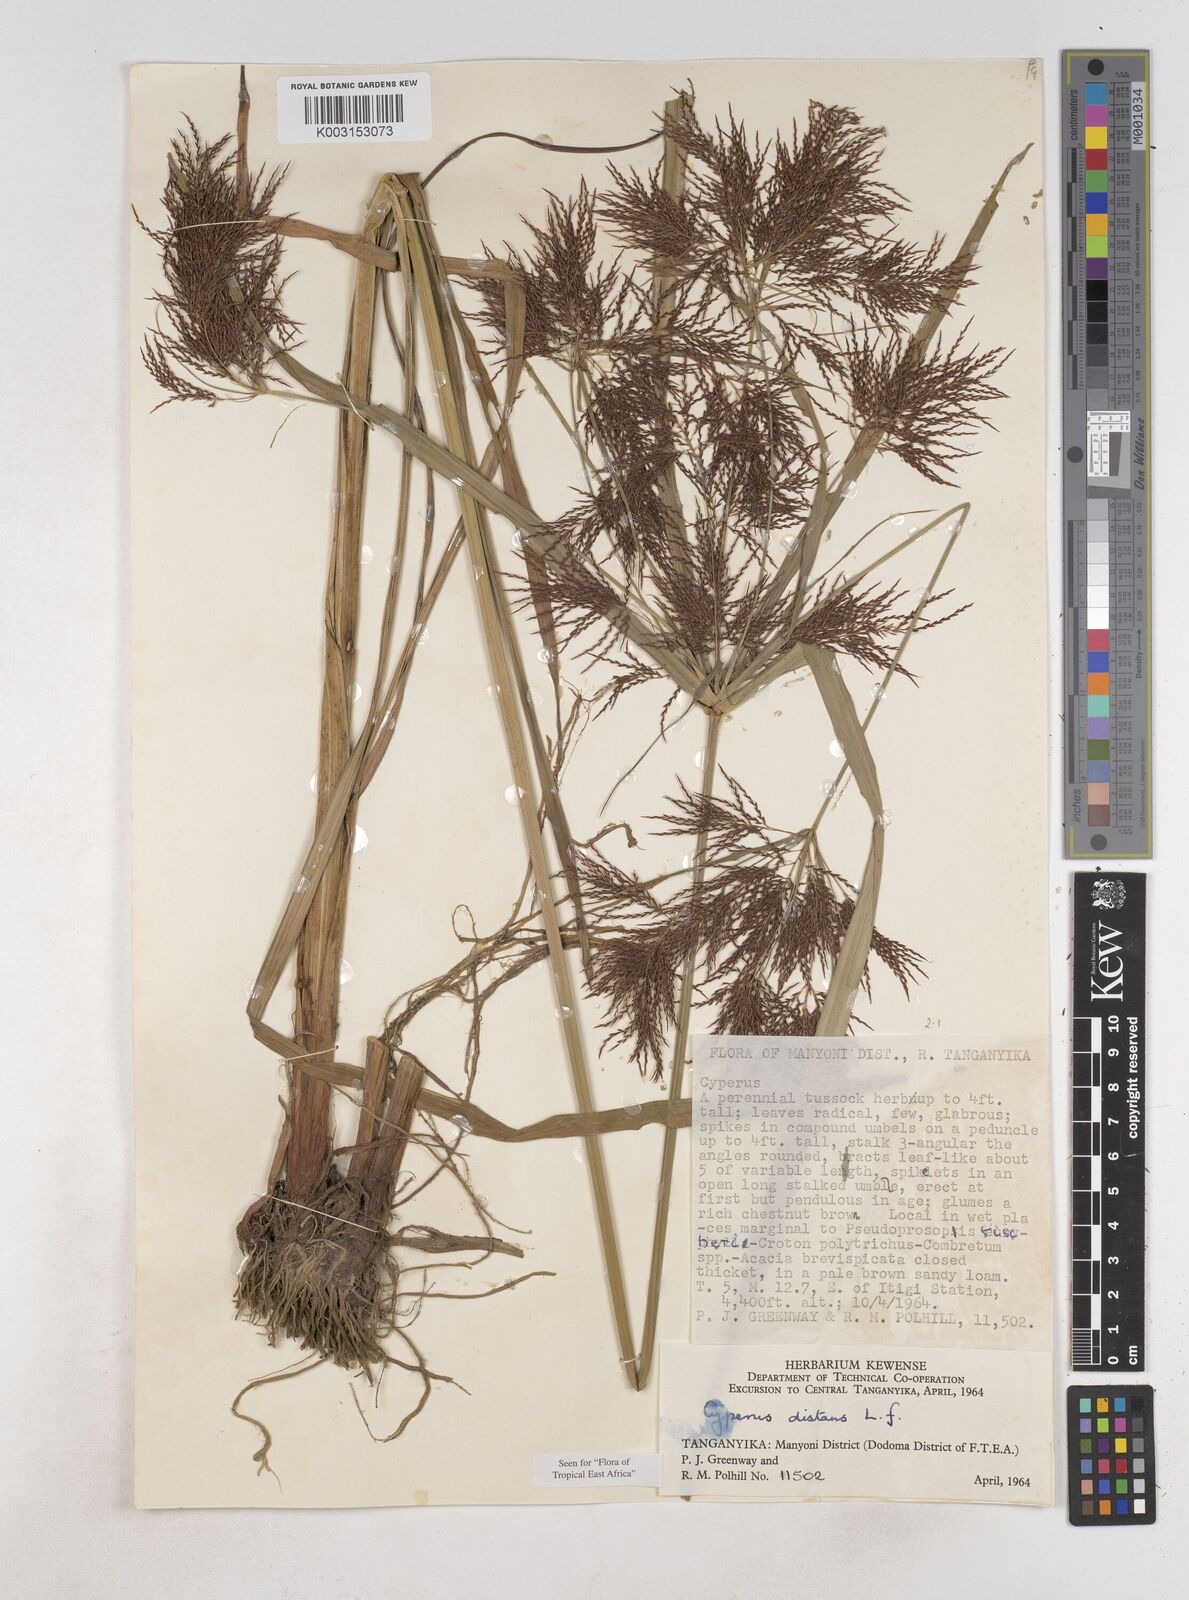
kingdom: Plantae
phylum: Tracheophyta
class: Liliopsida
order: Poales
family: Cyperaceae
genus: Cyperus
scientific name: Cyperus distans
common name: Slender cyperus
